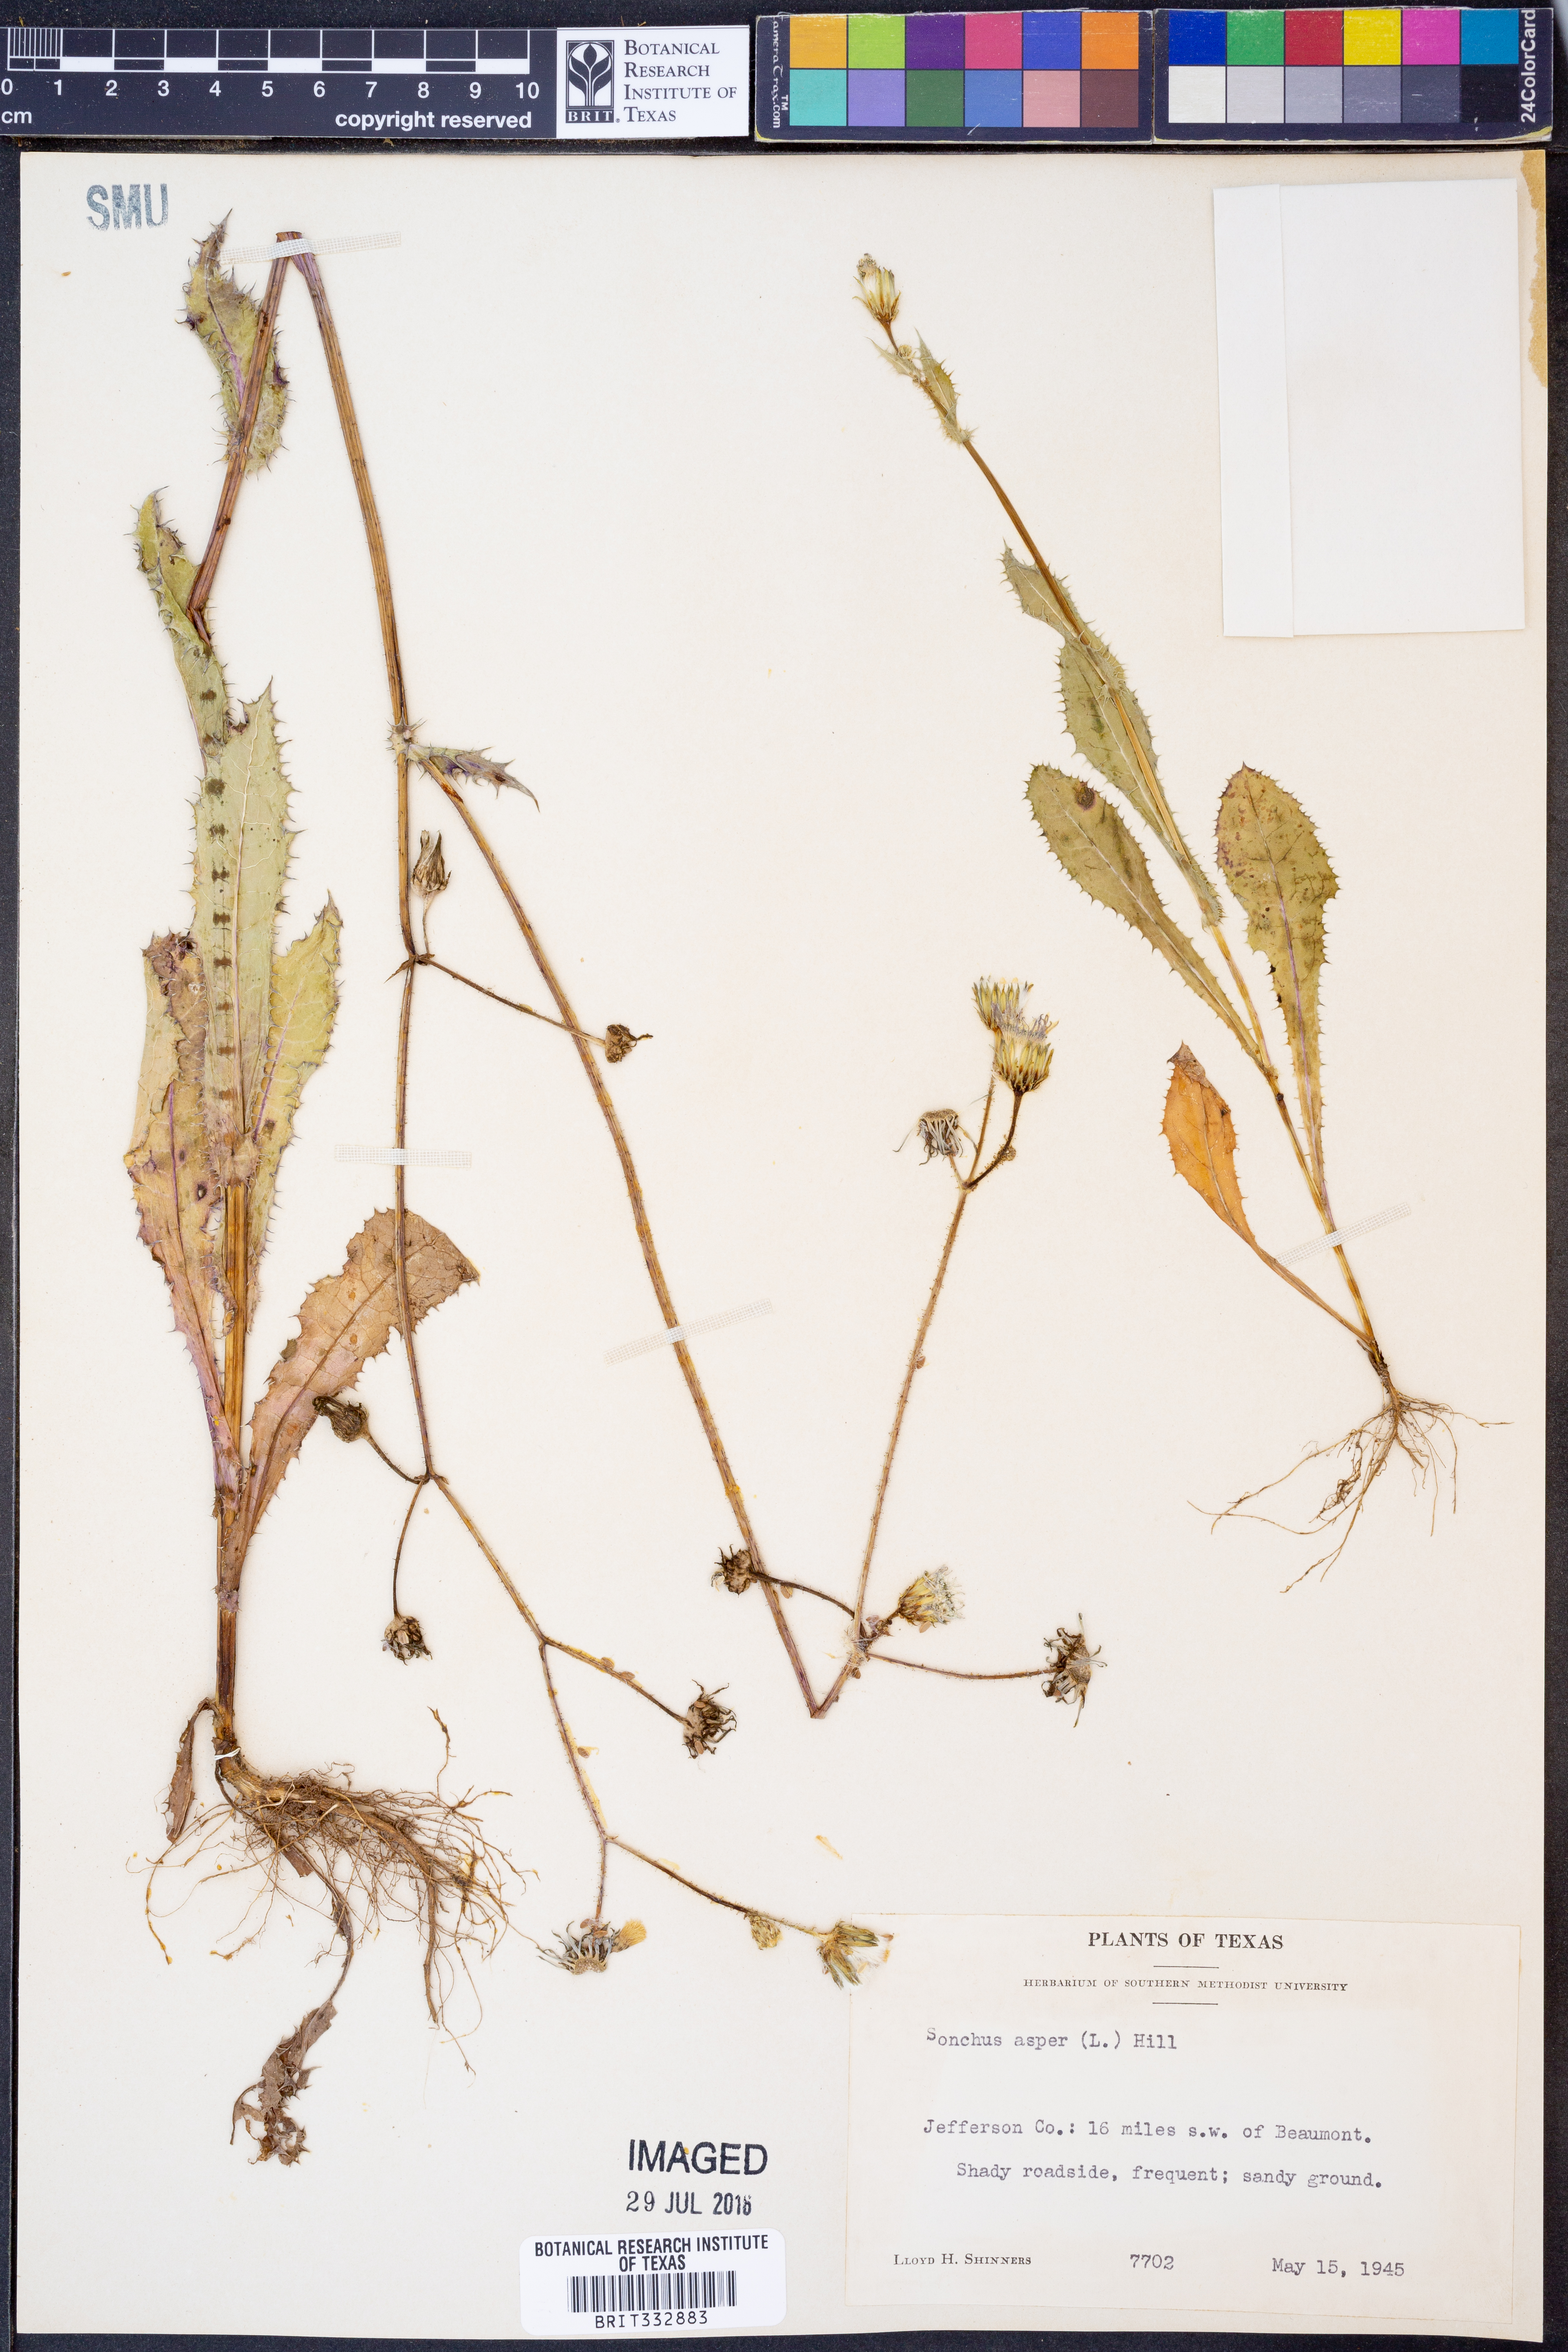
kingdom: Plantae
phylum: Tracheophyta
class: Magnoliopsida
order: Asterales
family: Asteraceae
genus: Sonchus
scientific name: Sonchus asper
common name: Prickly sow-thistle
